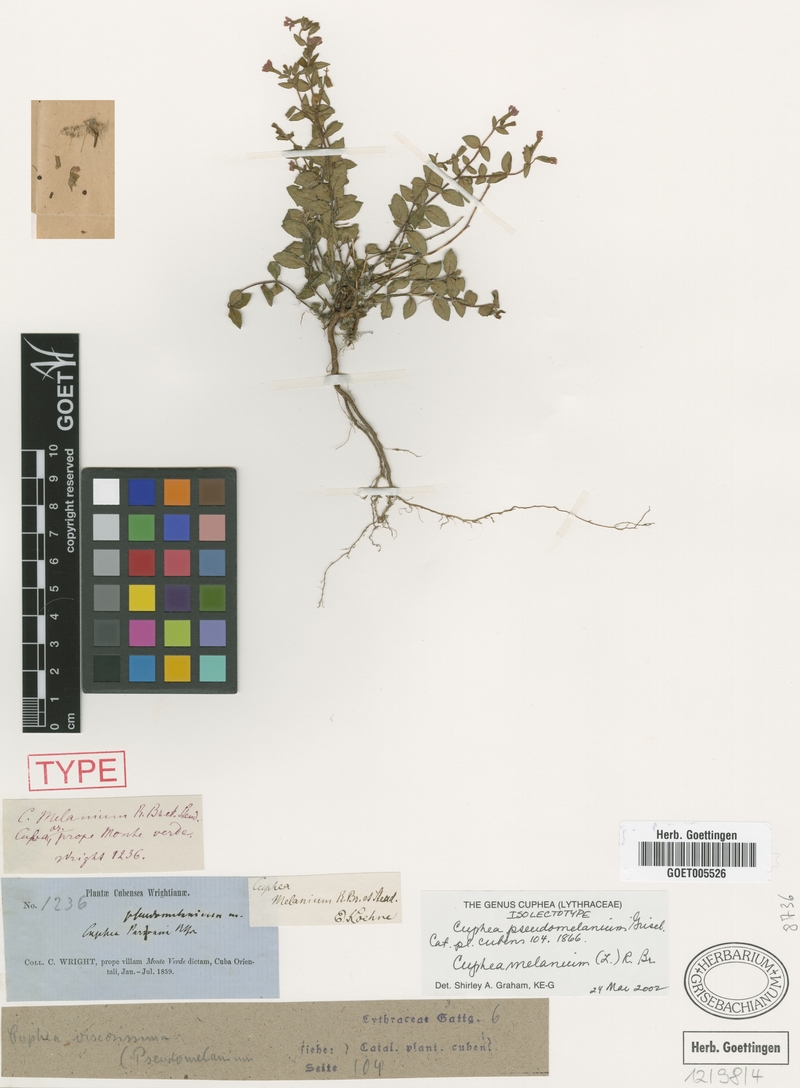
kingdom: Plantae
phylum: Tracheophyta
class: Magnoliopsida
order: Myrtales
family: Lythraceae
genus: Cuphea
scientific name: Cuphea melanium
